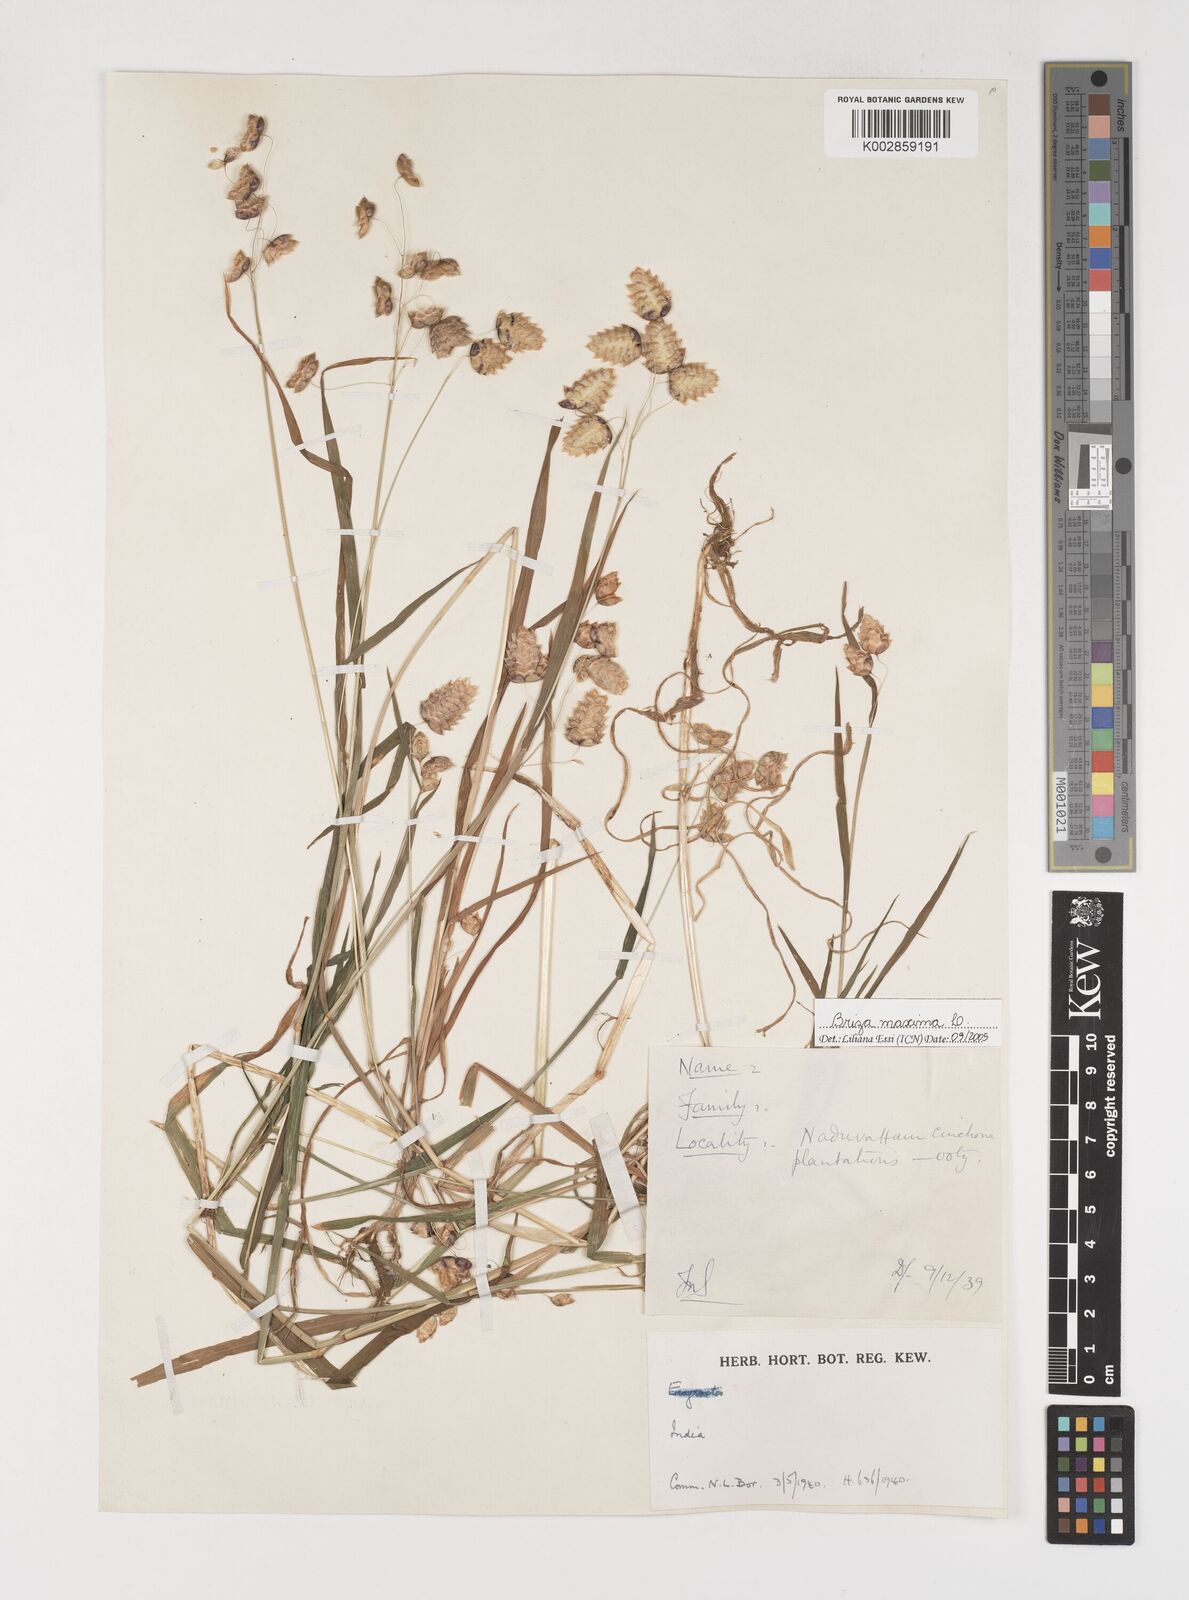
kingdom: Plantae
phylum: Tracheophyta
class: Liliopsida
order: Poales
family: Poaceae
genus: Briza
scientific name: Briza maxima
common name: Big quakinggrass
